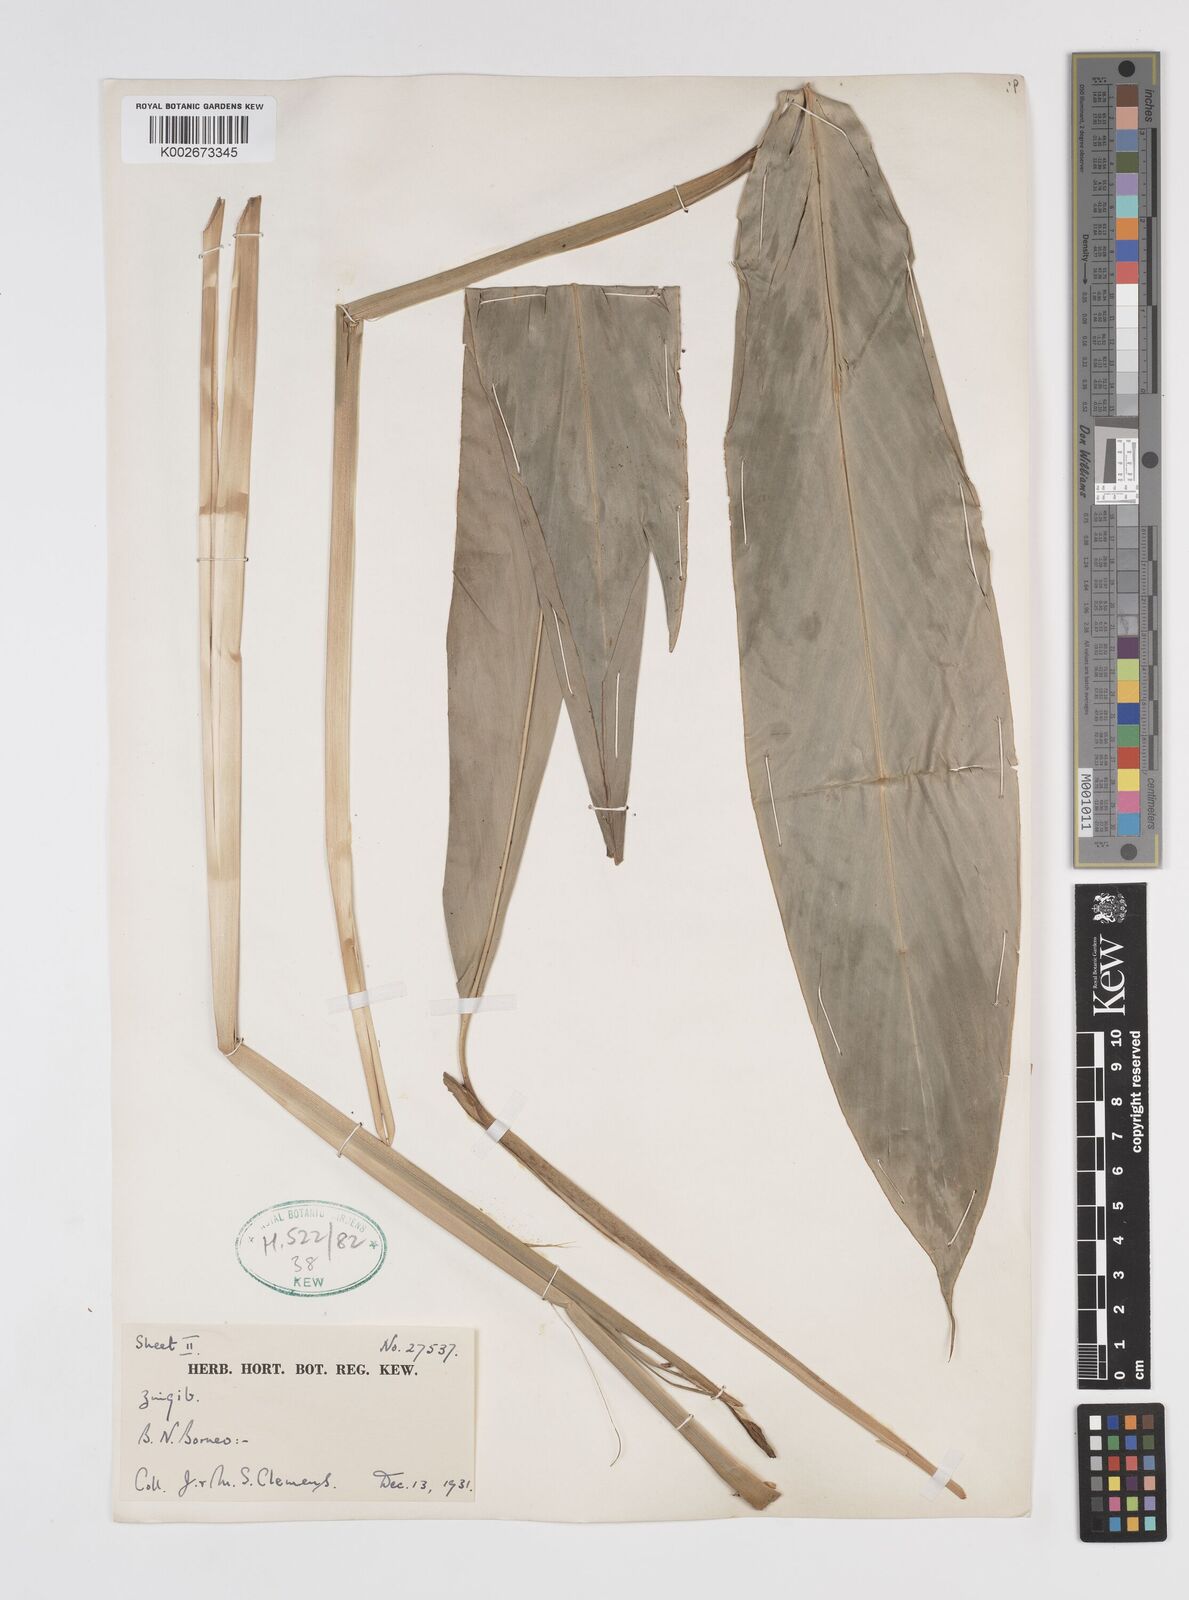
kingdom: Plantae
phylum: Tracheophyta
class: Liliopsida
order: Zingiberales
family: Zingiberaceae
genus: Sulettaria
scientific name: Sulettaria anomala
